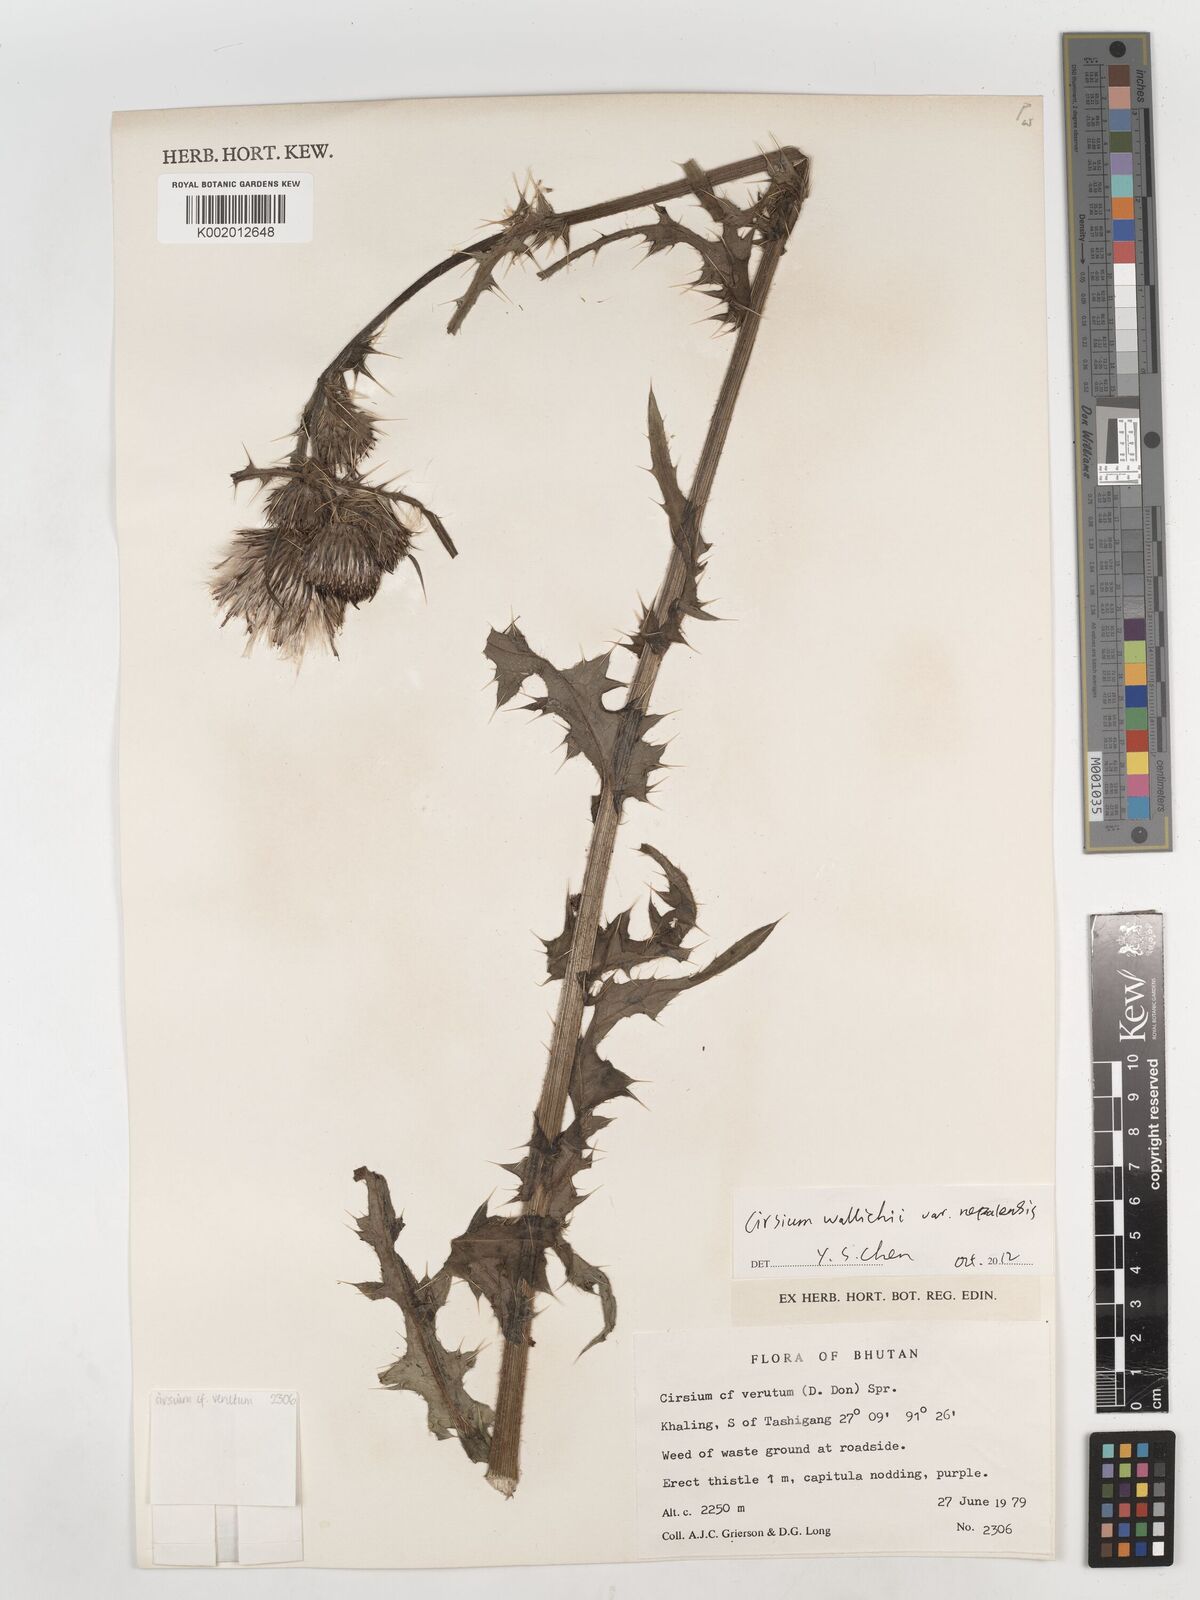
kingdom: Plantae
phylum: Tracheophyta
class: Magnoliopsida
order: Asterales
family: Asteraceae
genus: Lophiolepis
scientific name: Lophiolepis veruta
